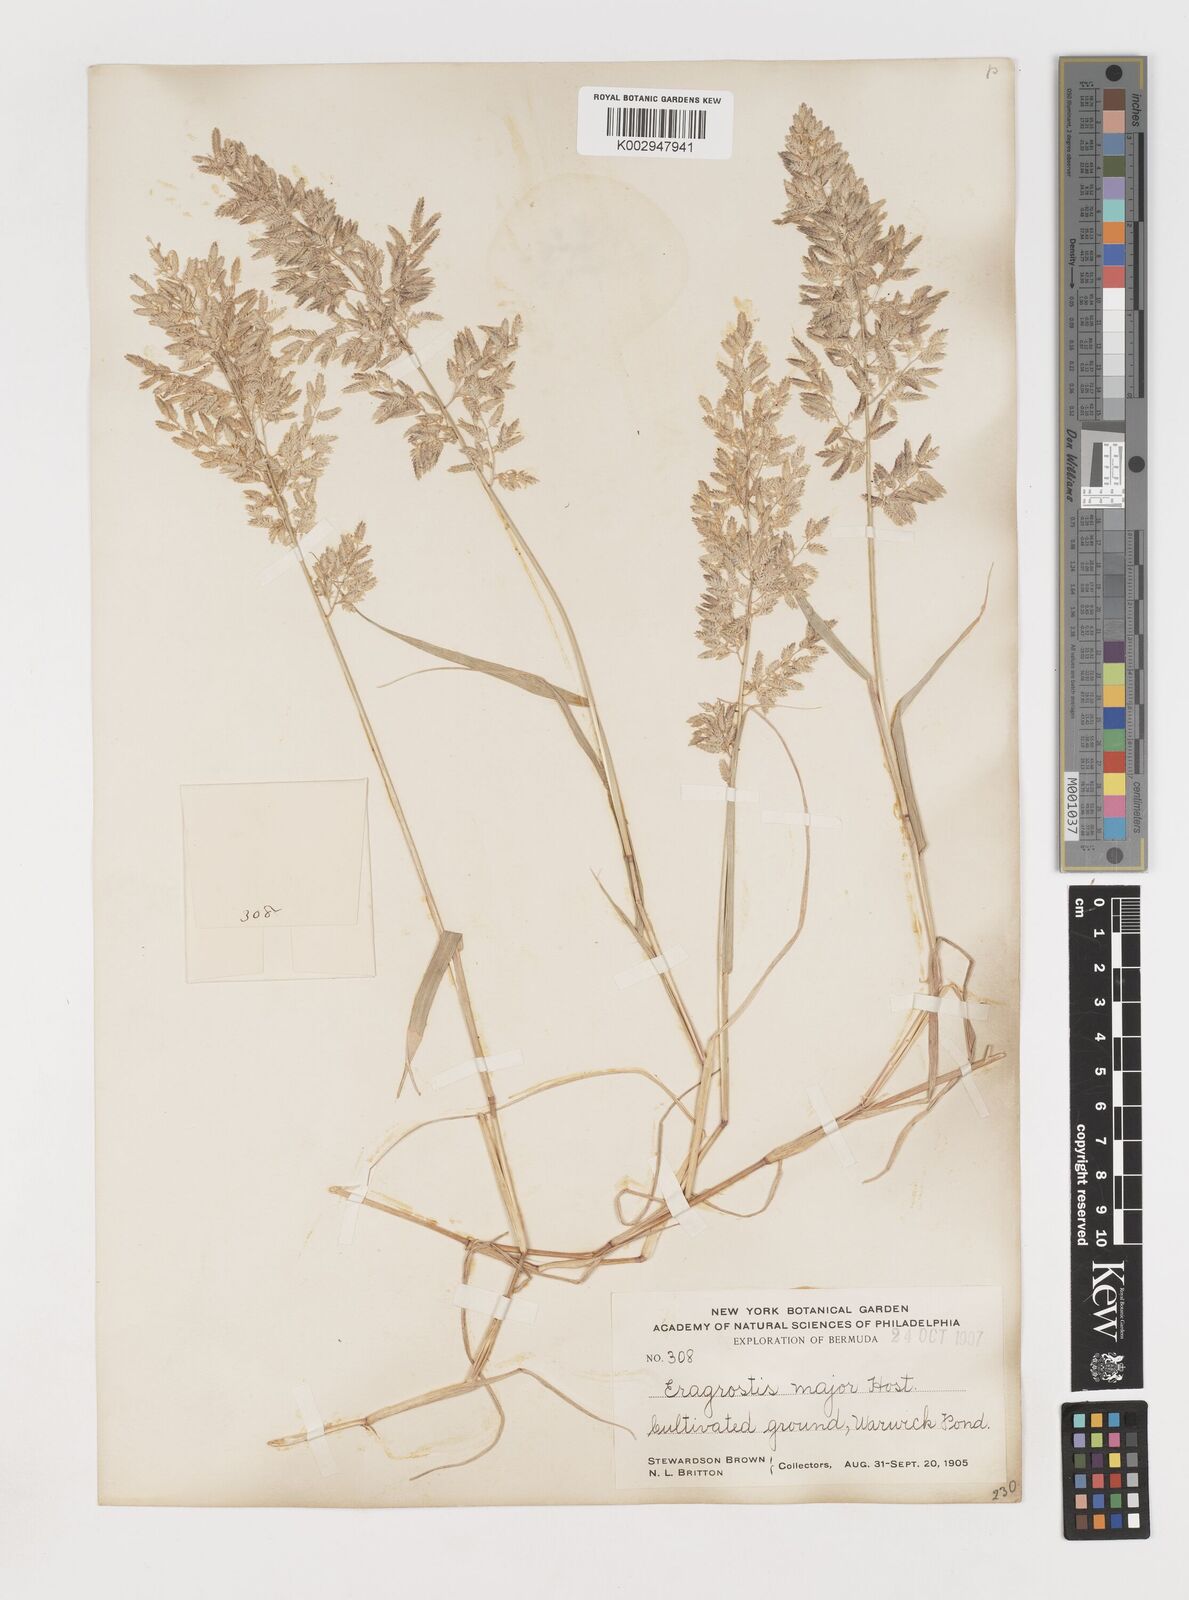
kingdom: Plantae
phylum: Tracheophyta
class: Liliopsida
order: Poales
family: Poaceae
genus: Eragrostis
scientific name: Eragrostis
